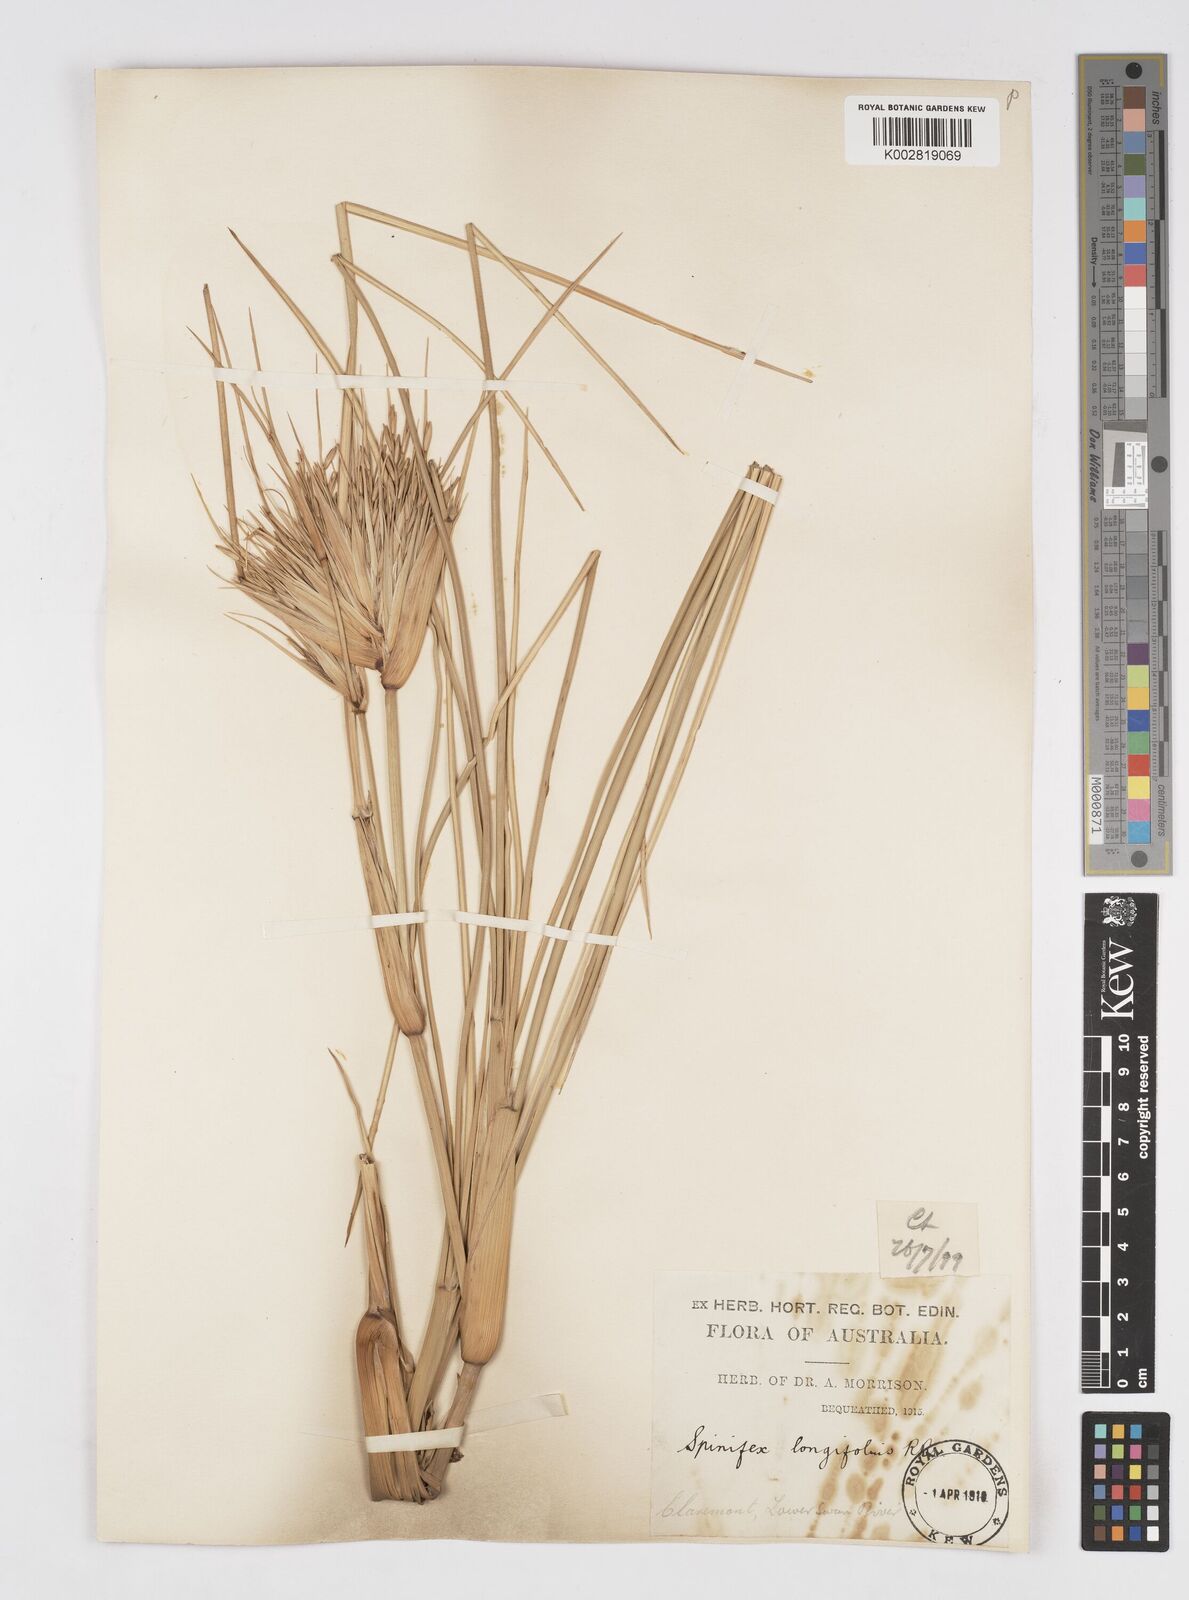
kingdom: Plantae
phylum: Tracheophyta
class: Liliopsida
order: Poales
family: Poaceae
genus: Spinifex
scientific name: Spinifex longifolius
